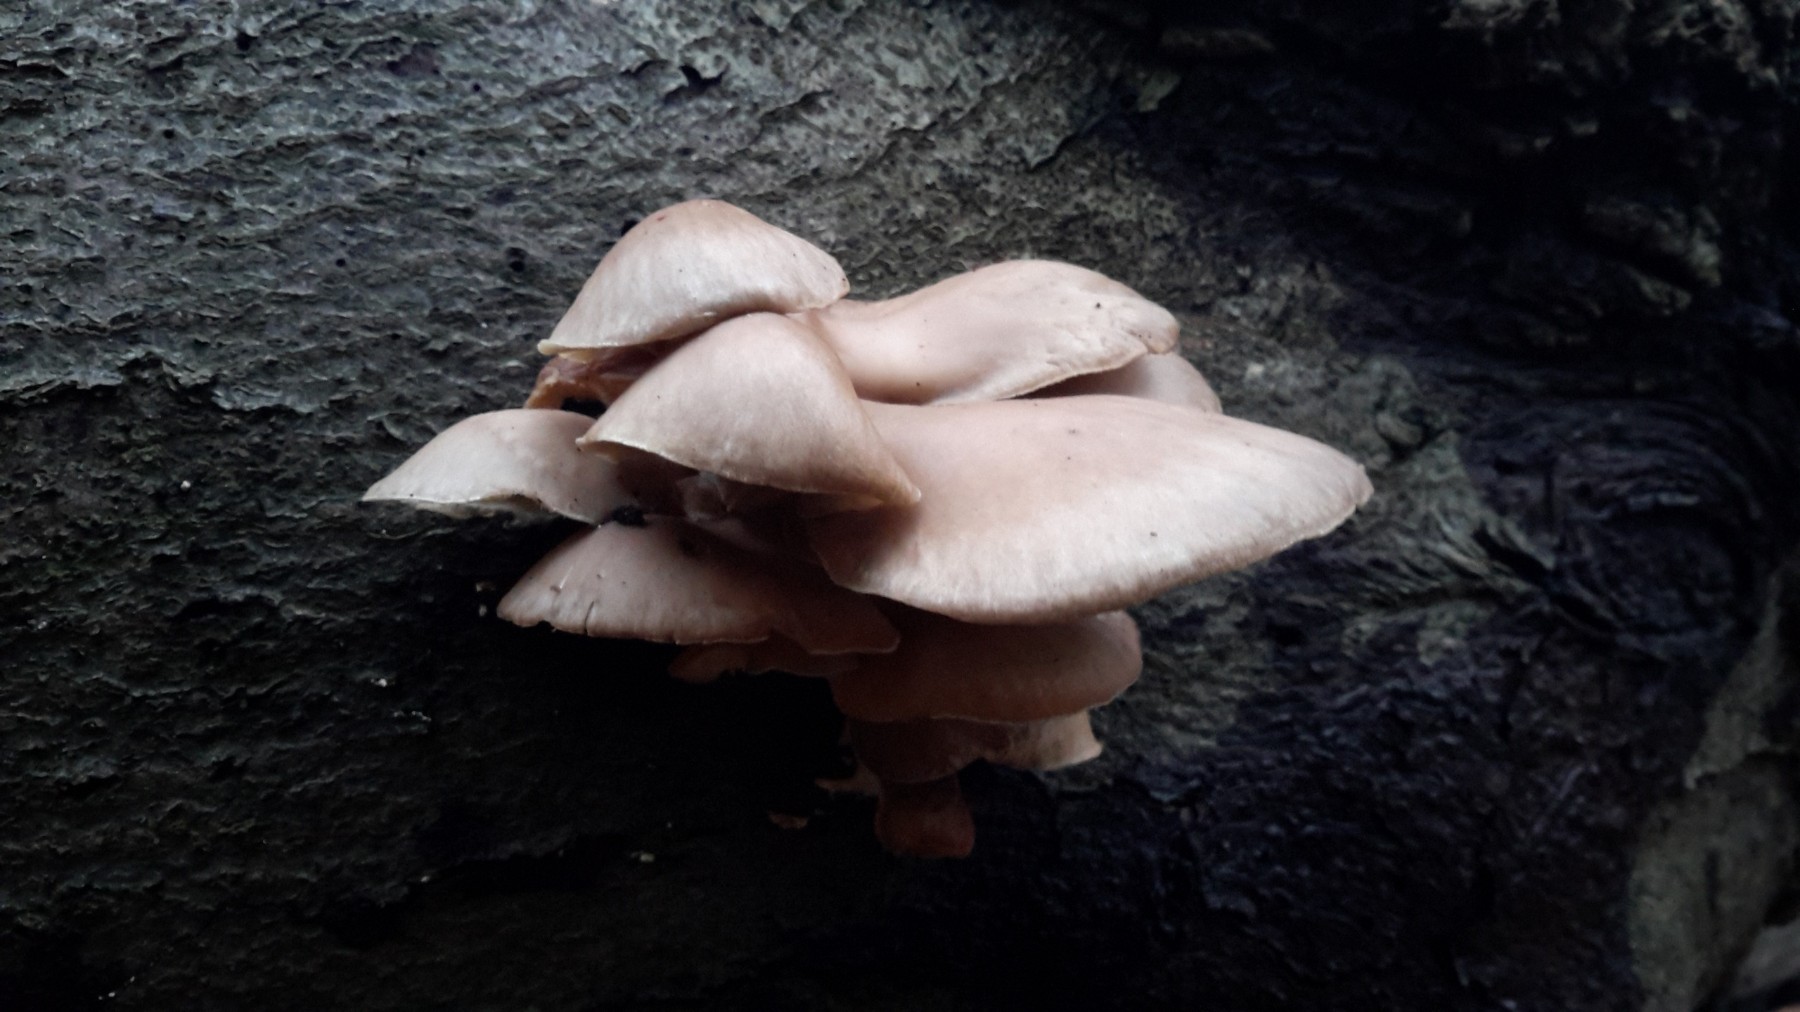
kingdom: Fungi
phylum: Basidiomycota
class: Agaricomycetes
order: Agaricales
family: Pleurotaceae
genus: Pleurotus
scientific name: Pleurotus ostreatus
